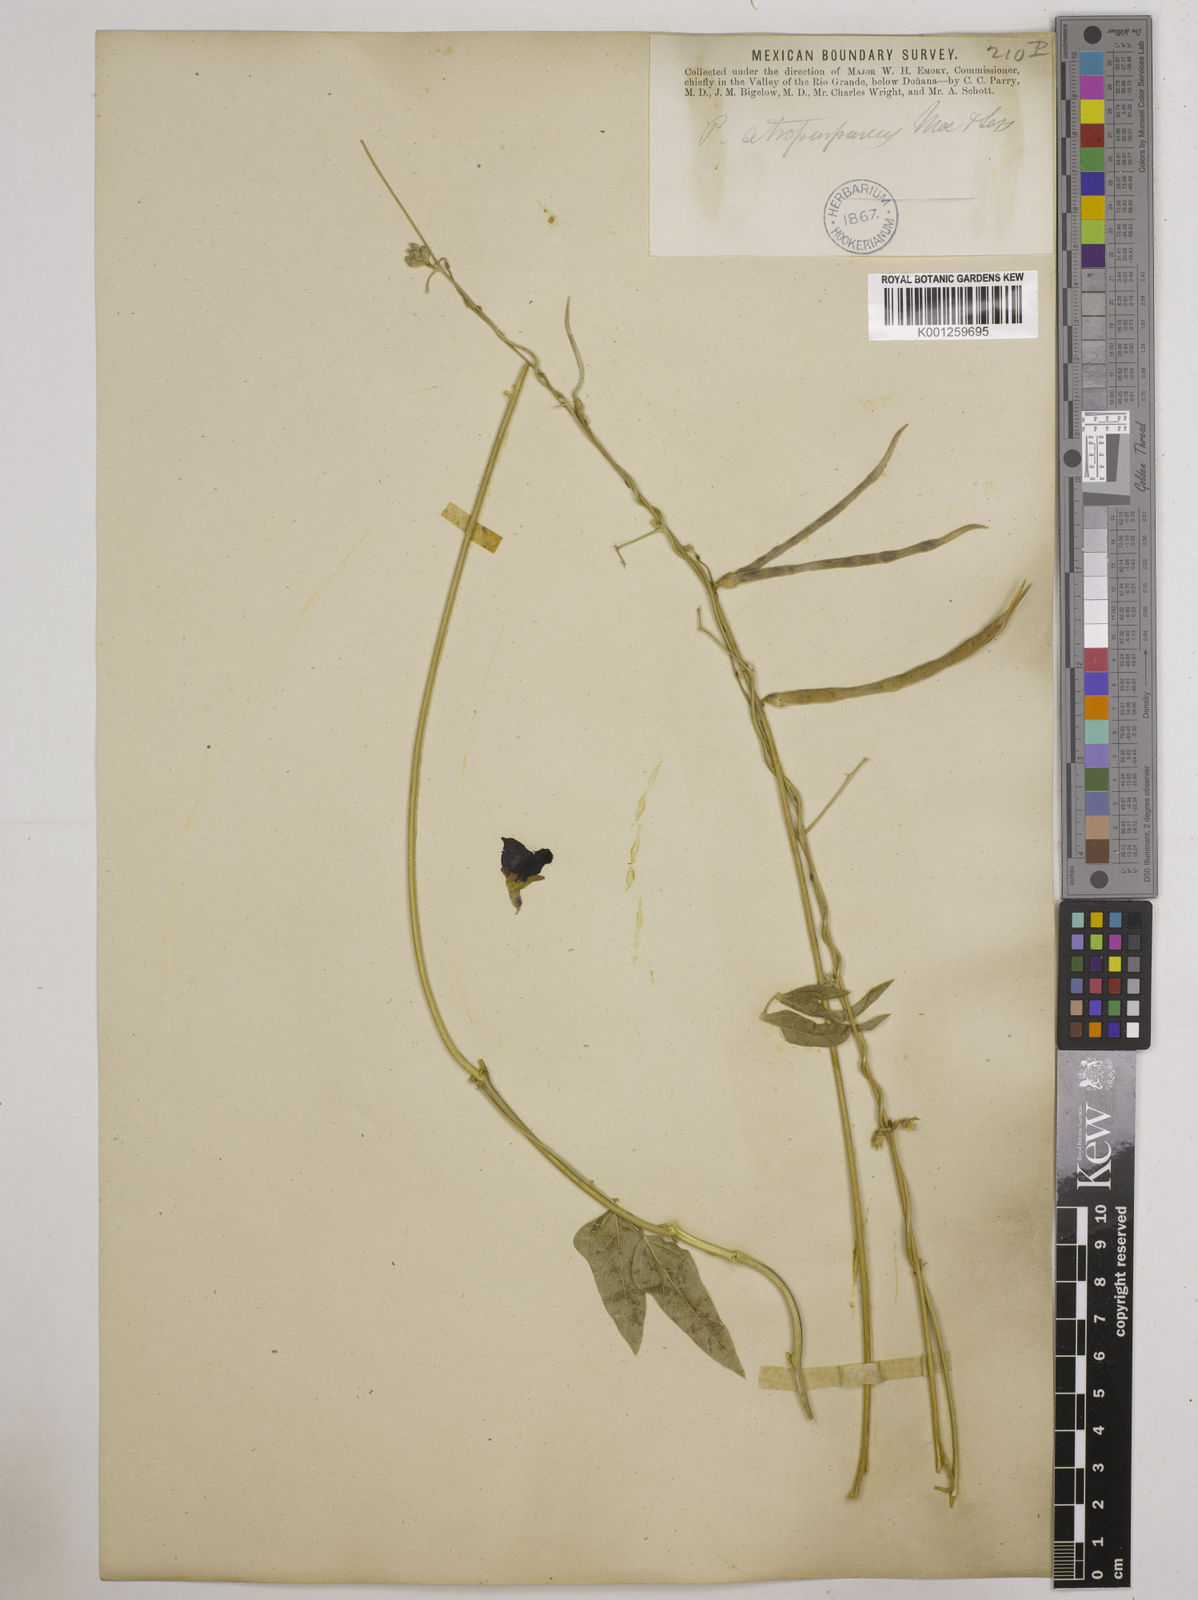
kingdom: Plantae
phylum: Tracheophyta
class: Magnoliopsida
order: Fabales
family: Fabaceae
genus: Macroptilium
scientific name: Macroptilium atropurpureum
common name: Purple bushbean
